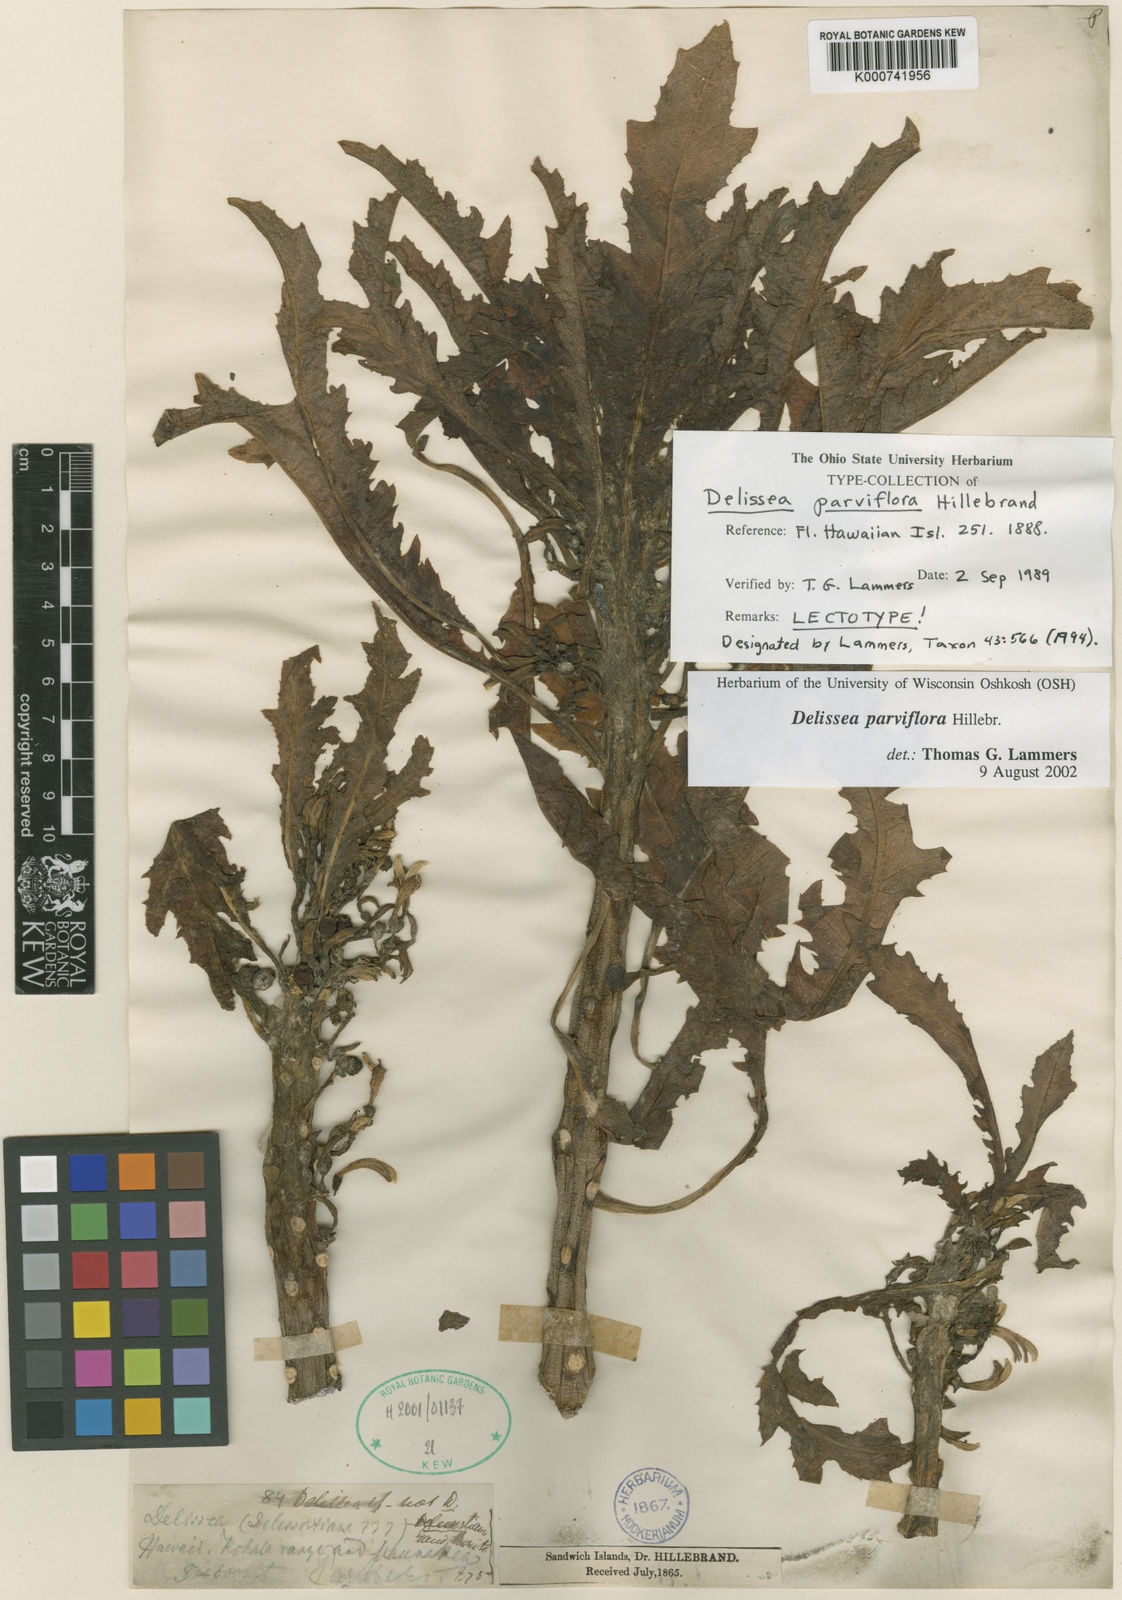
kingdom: Plantae
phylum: Tracheophyta
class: Magnoliopsida
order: Asterales
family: Campanulaceae
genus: Delissea
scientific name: Delissea parviflora
